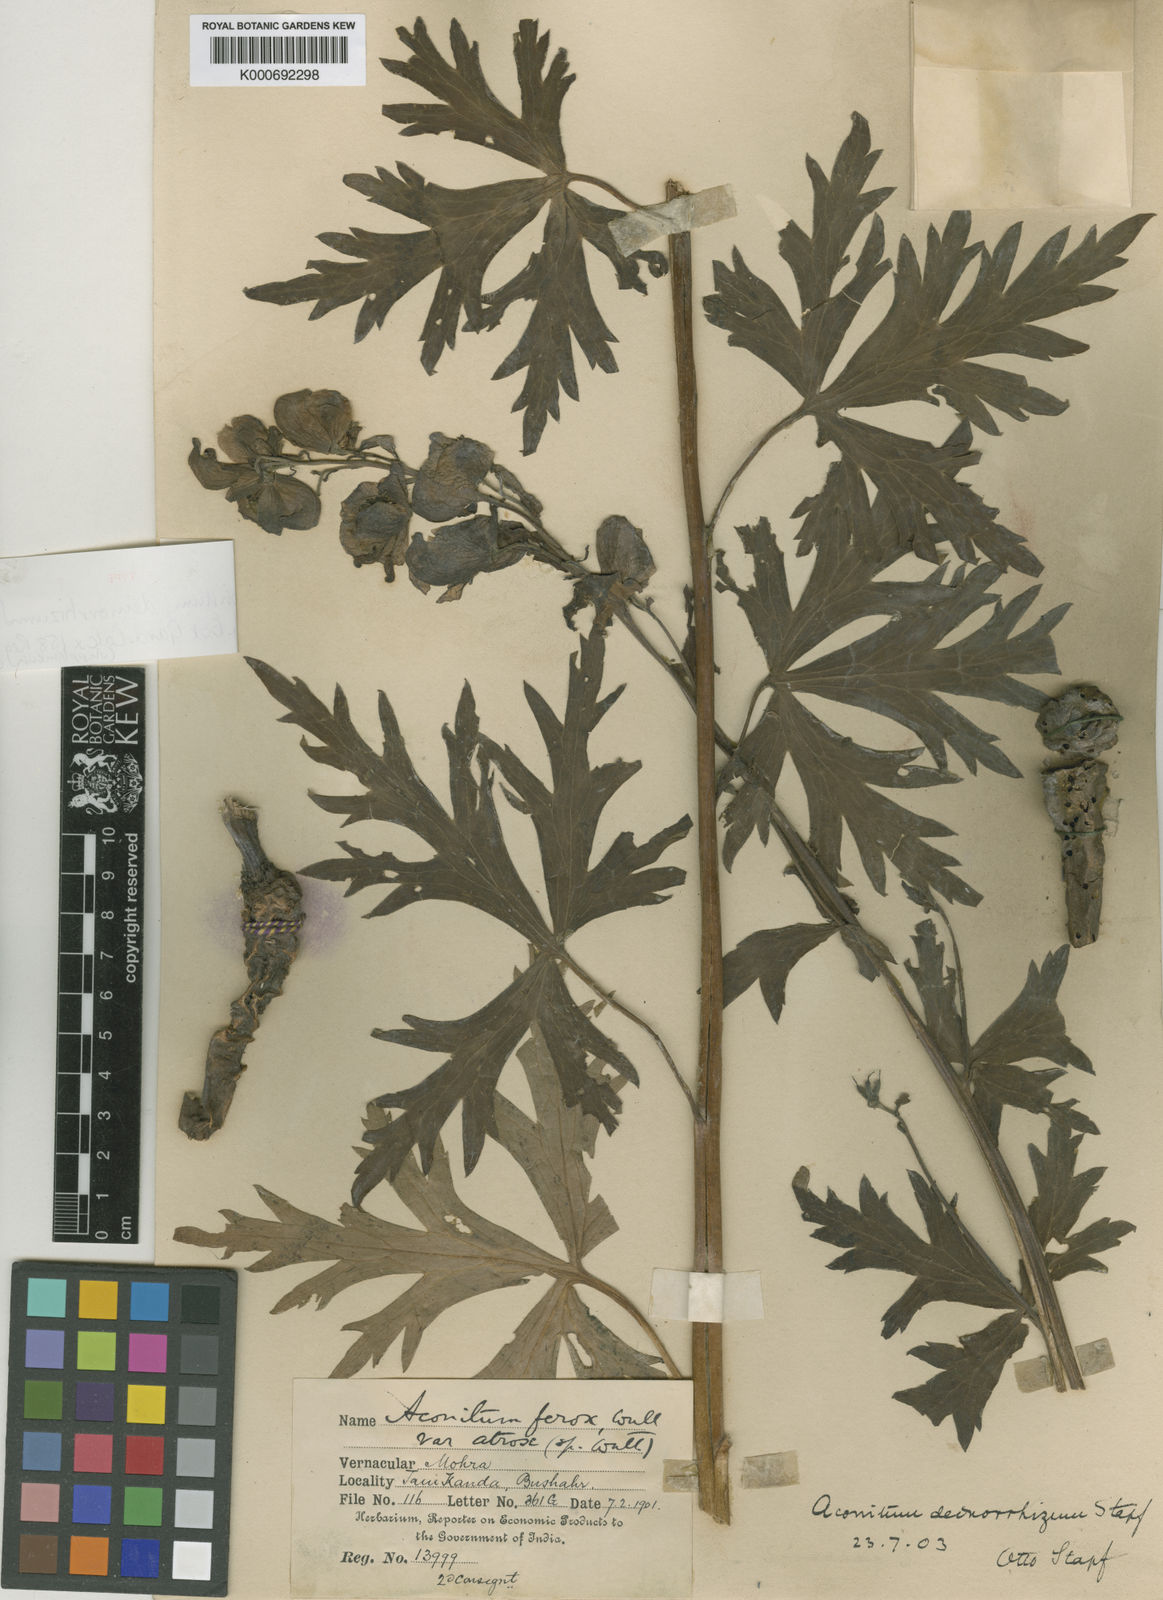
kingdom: Plantae
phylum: Tracheophyta
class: Magnoliopsida
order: Ranunculales
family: Ranunculaceae
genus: Aconitum
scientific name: Aconitum deinorrhizum
